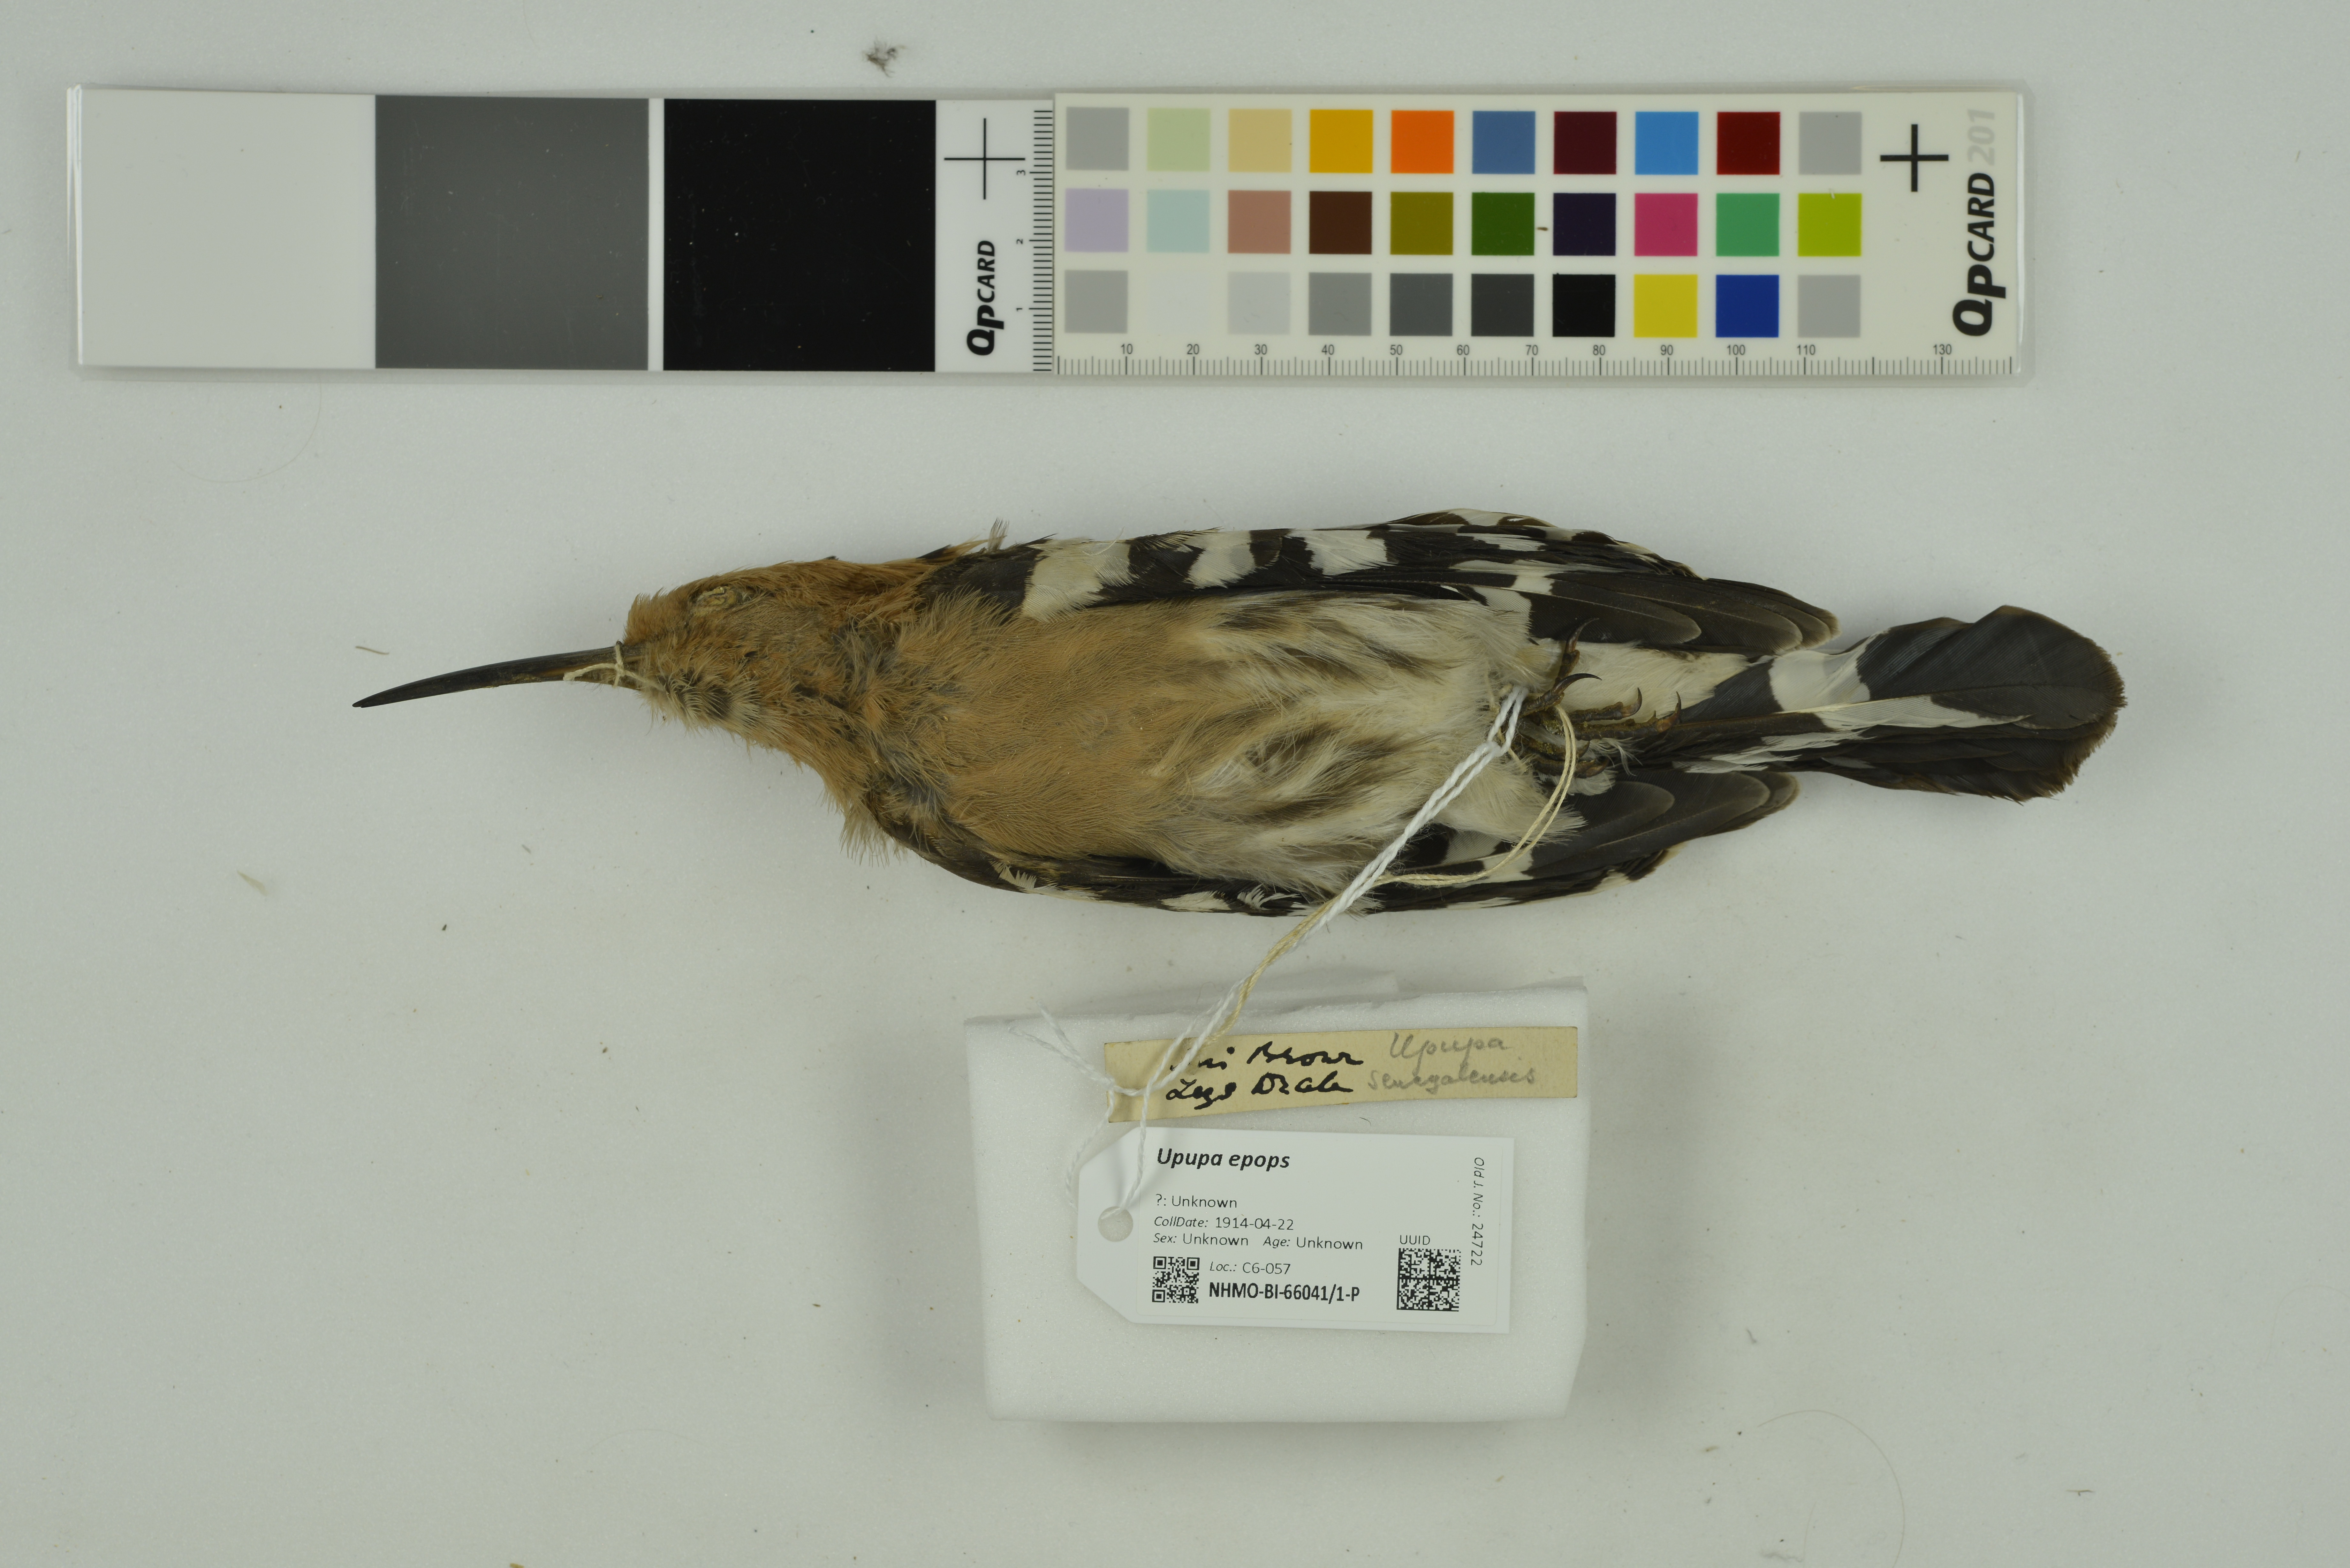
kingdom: Animalia
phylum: Chordata
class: Aves
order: Bucerotiformes
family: Upupidae
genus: Upupa
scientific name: Upupa epops
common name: Eurasian hoopoe
